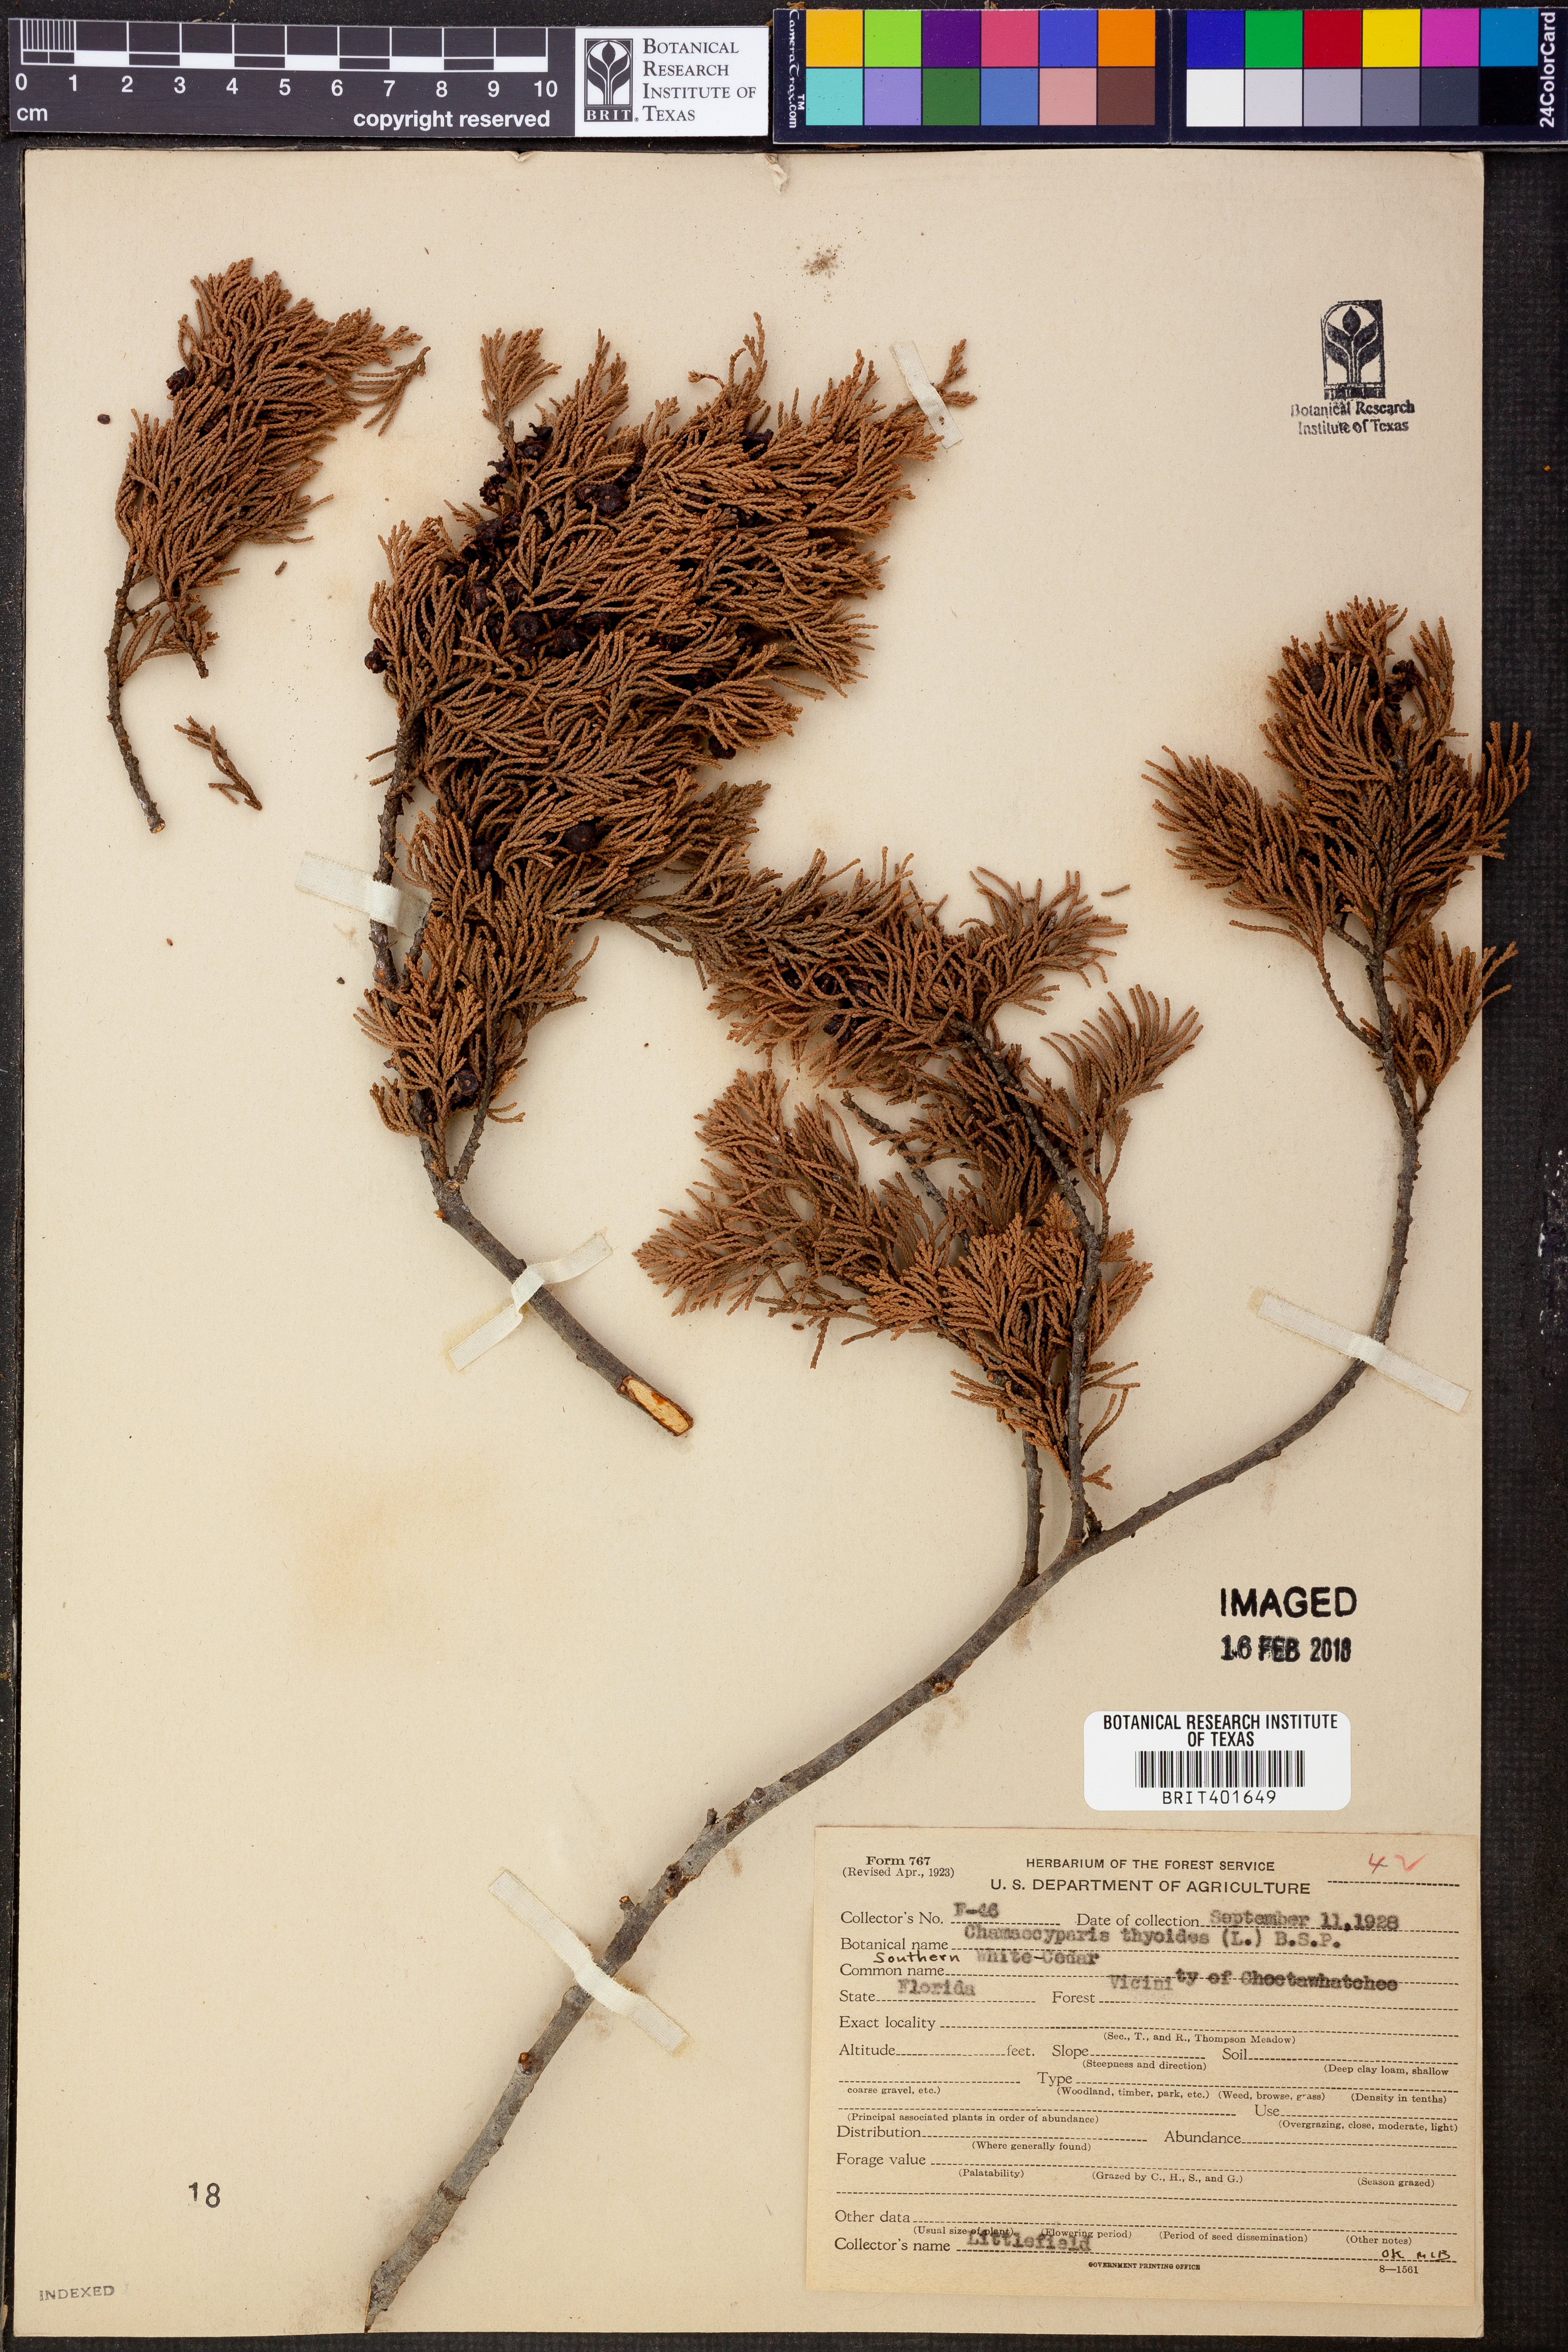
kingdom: Plantae
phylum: Tracheophyta
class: Pinopsida
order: Pinales
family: Cupressaceae
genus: Chamaecyparis
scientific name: Chamaecyparis thyoides
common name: Atlantic white cedar
